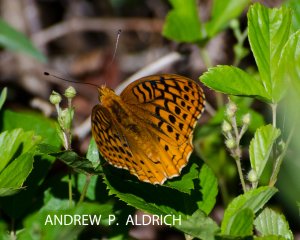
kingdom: Animalia
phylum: Arthropoda
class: Insecta
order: Lepidoptera
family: Nymphalidae
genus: Speyeria
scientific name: Speyeria cybele
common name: Great Spangled Fritillary
